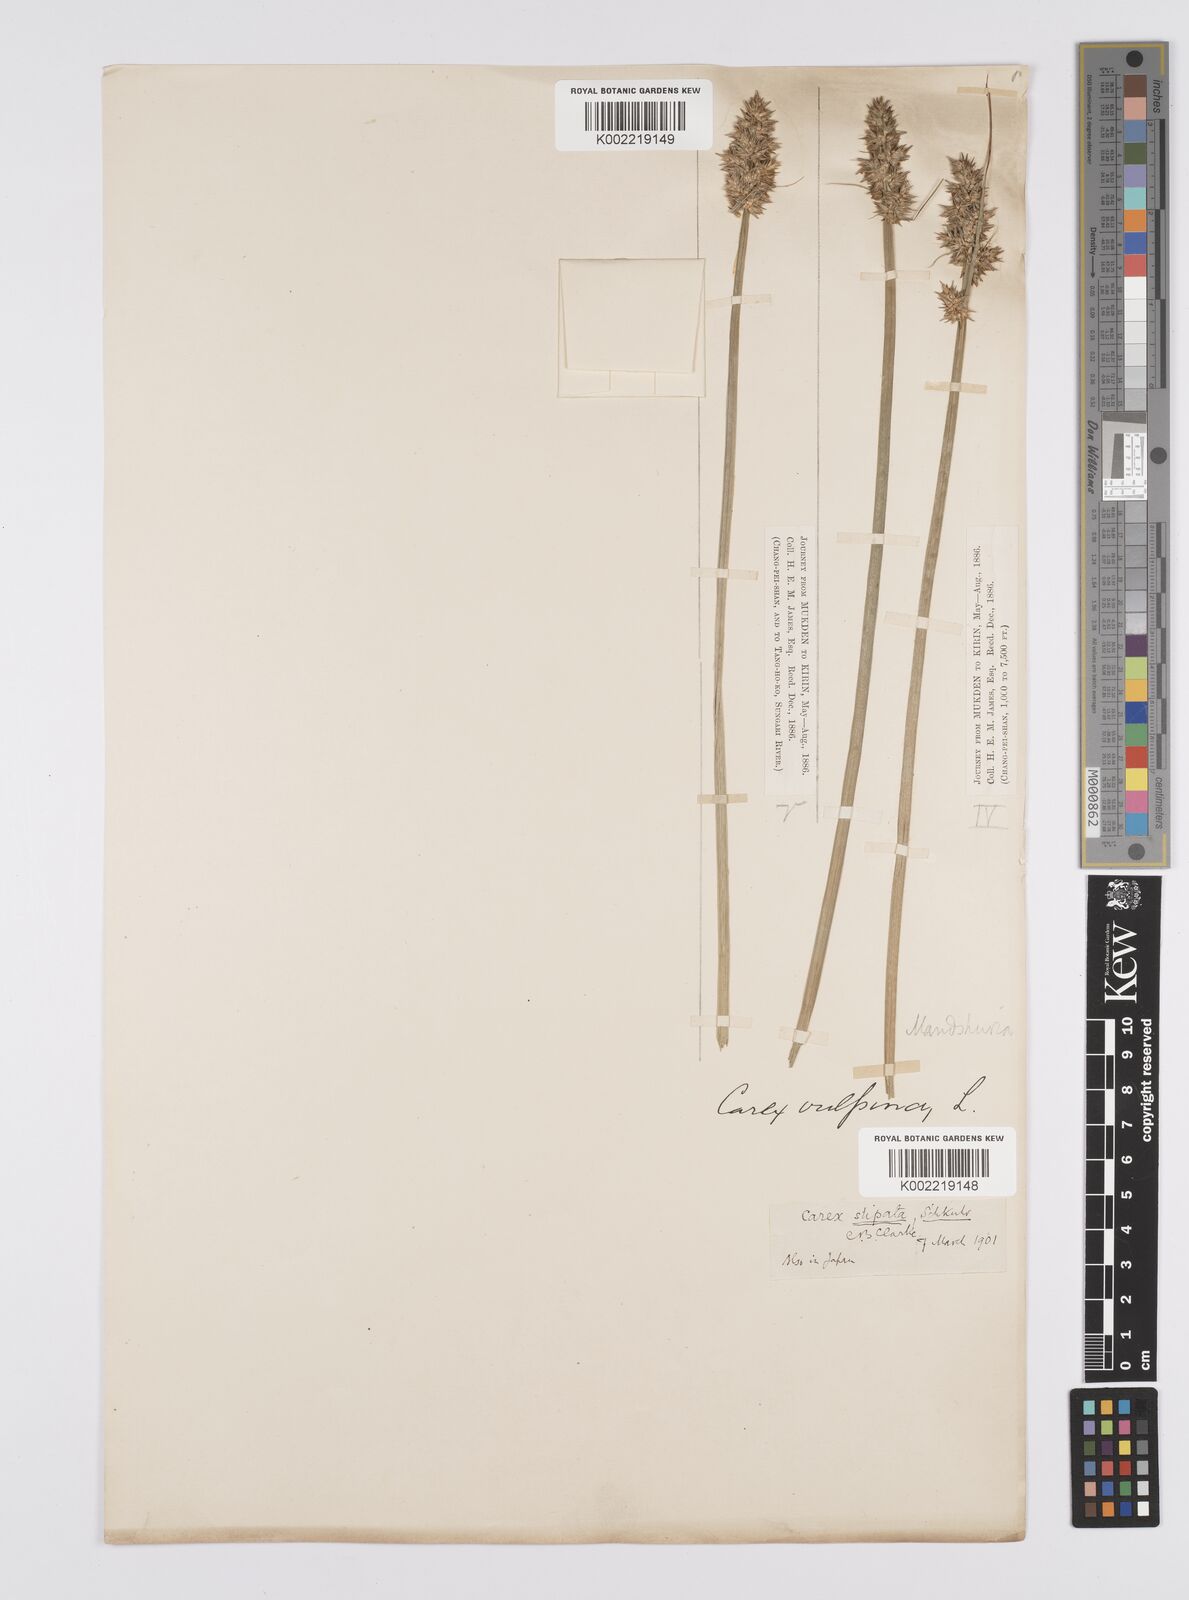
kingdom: Plantae
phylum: Tracheophyta
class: Liliopsida
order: Poales
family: Cyperaceae
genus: Carex
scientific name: Carex
